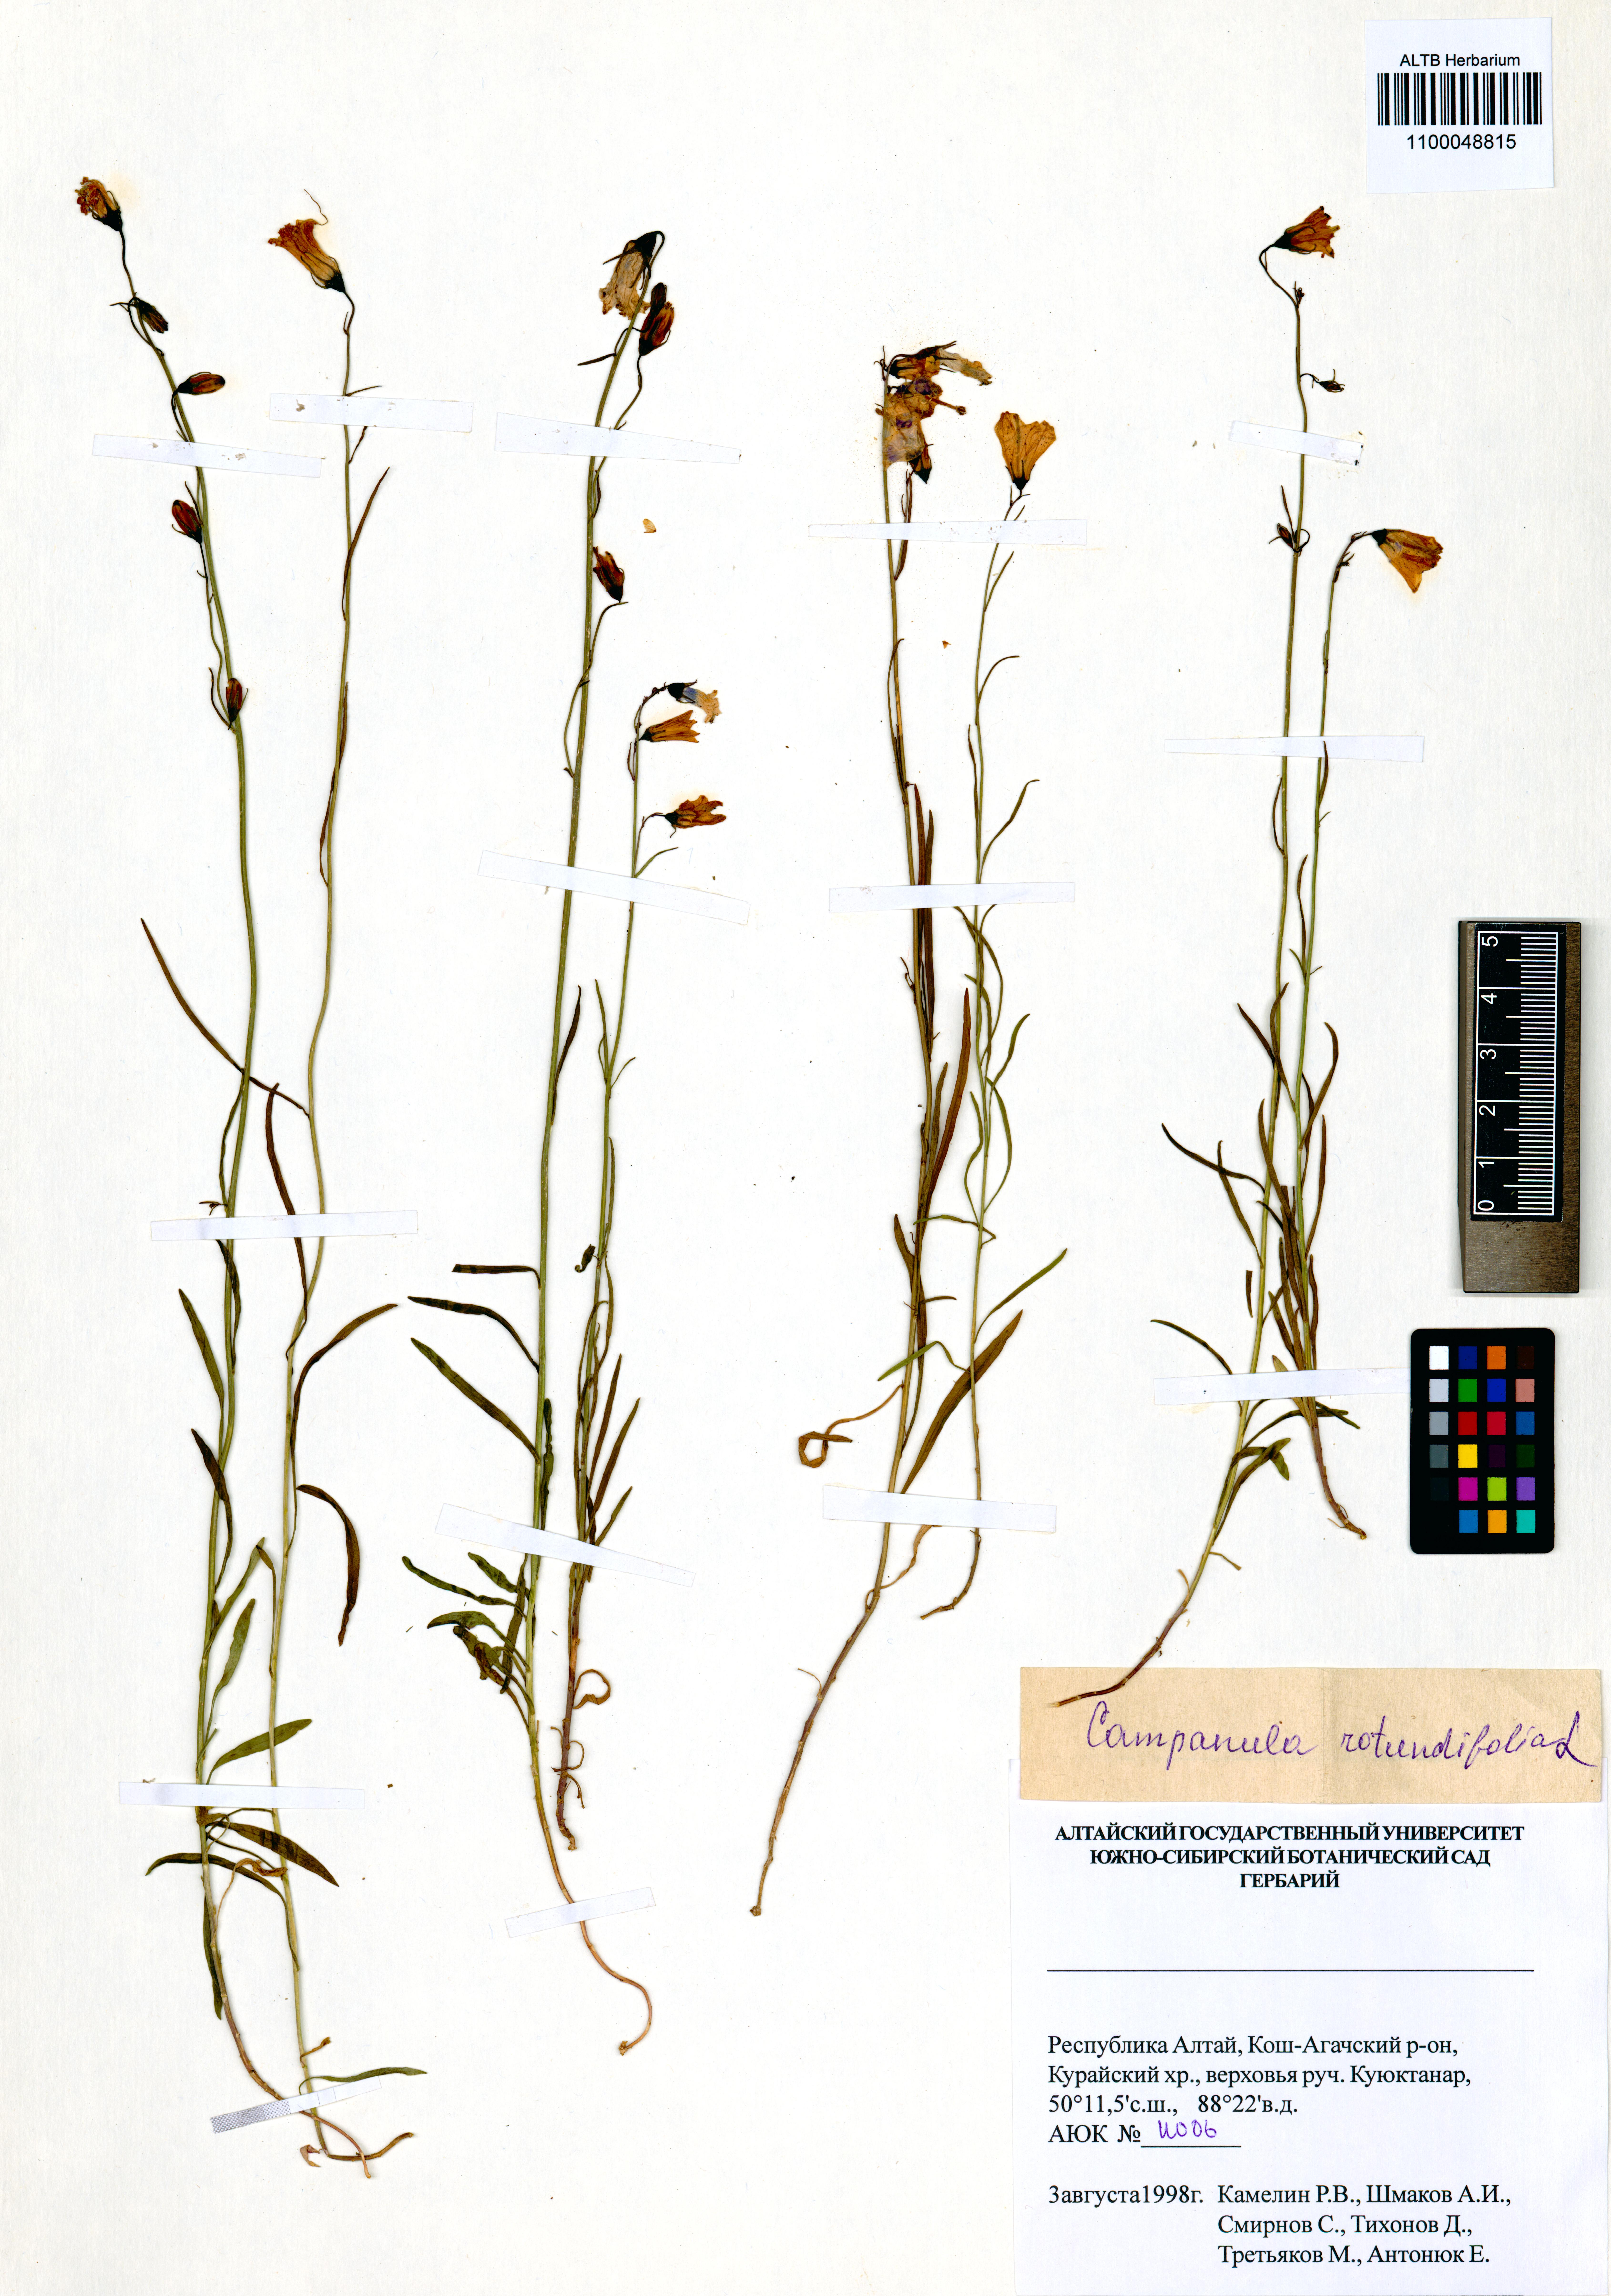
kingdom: Plantae
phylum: Tracheophyta
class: Magnoliopsida
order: Asterales
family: Campanulaceae
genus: Campanula
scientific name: Campanula rotundifolia
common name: Harebell
